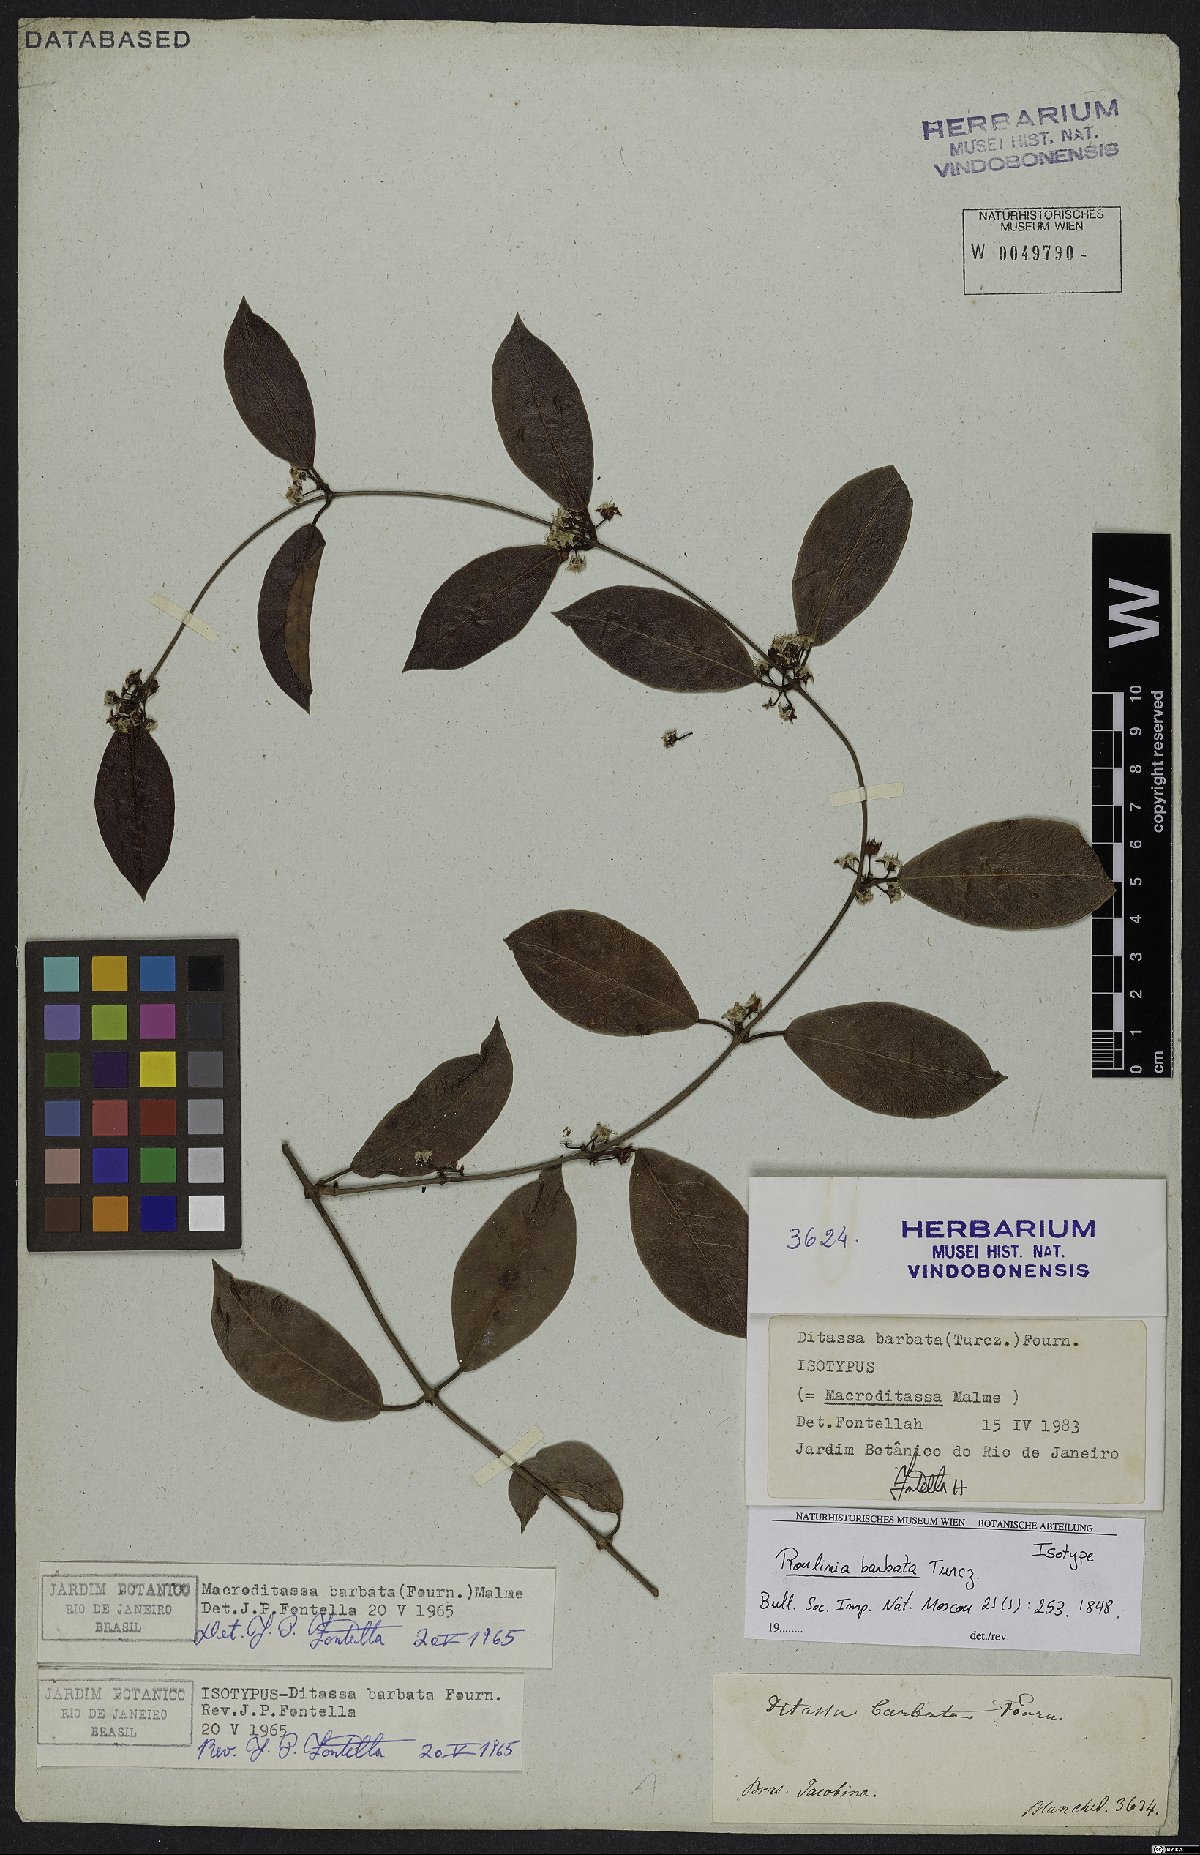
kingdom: Plantae
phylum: Tracheophyta
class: Magnoliopsida
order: Gentianales
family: Apocynaceae
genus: Nephradenia
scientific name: Nephradenia laurifolia
